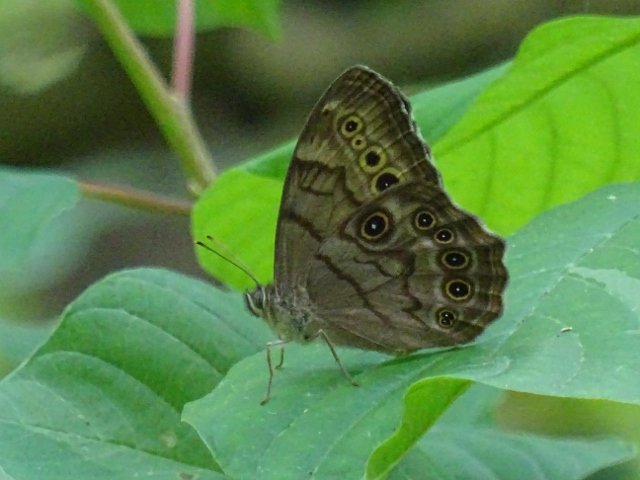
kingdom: Animalia
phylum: Arthropoda
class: Insecta
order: Lepidoptera
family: Nymphalidae
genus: Lethe
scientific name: Lethe anthedon
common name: Northern Pearly-Eye
